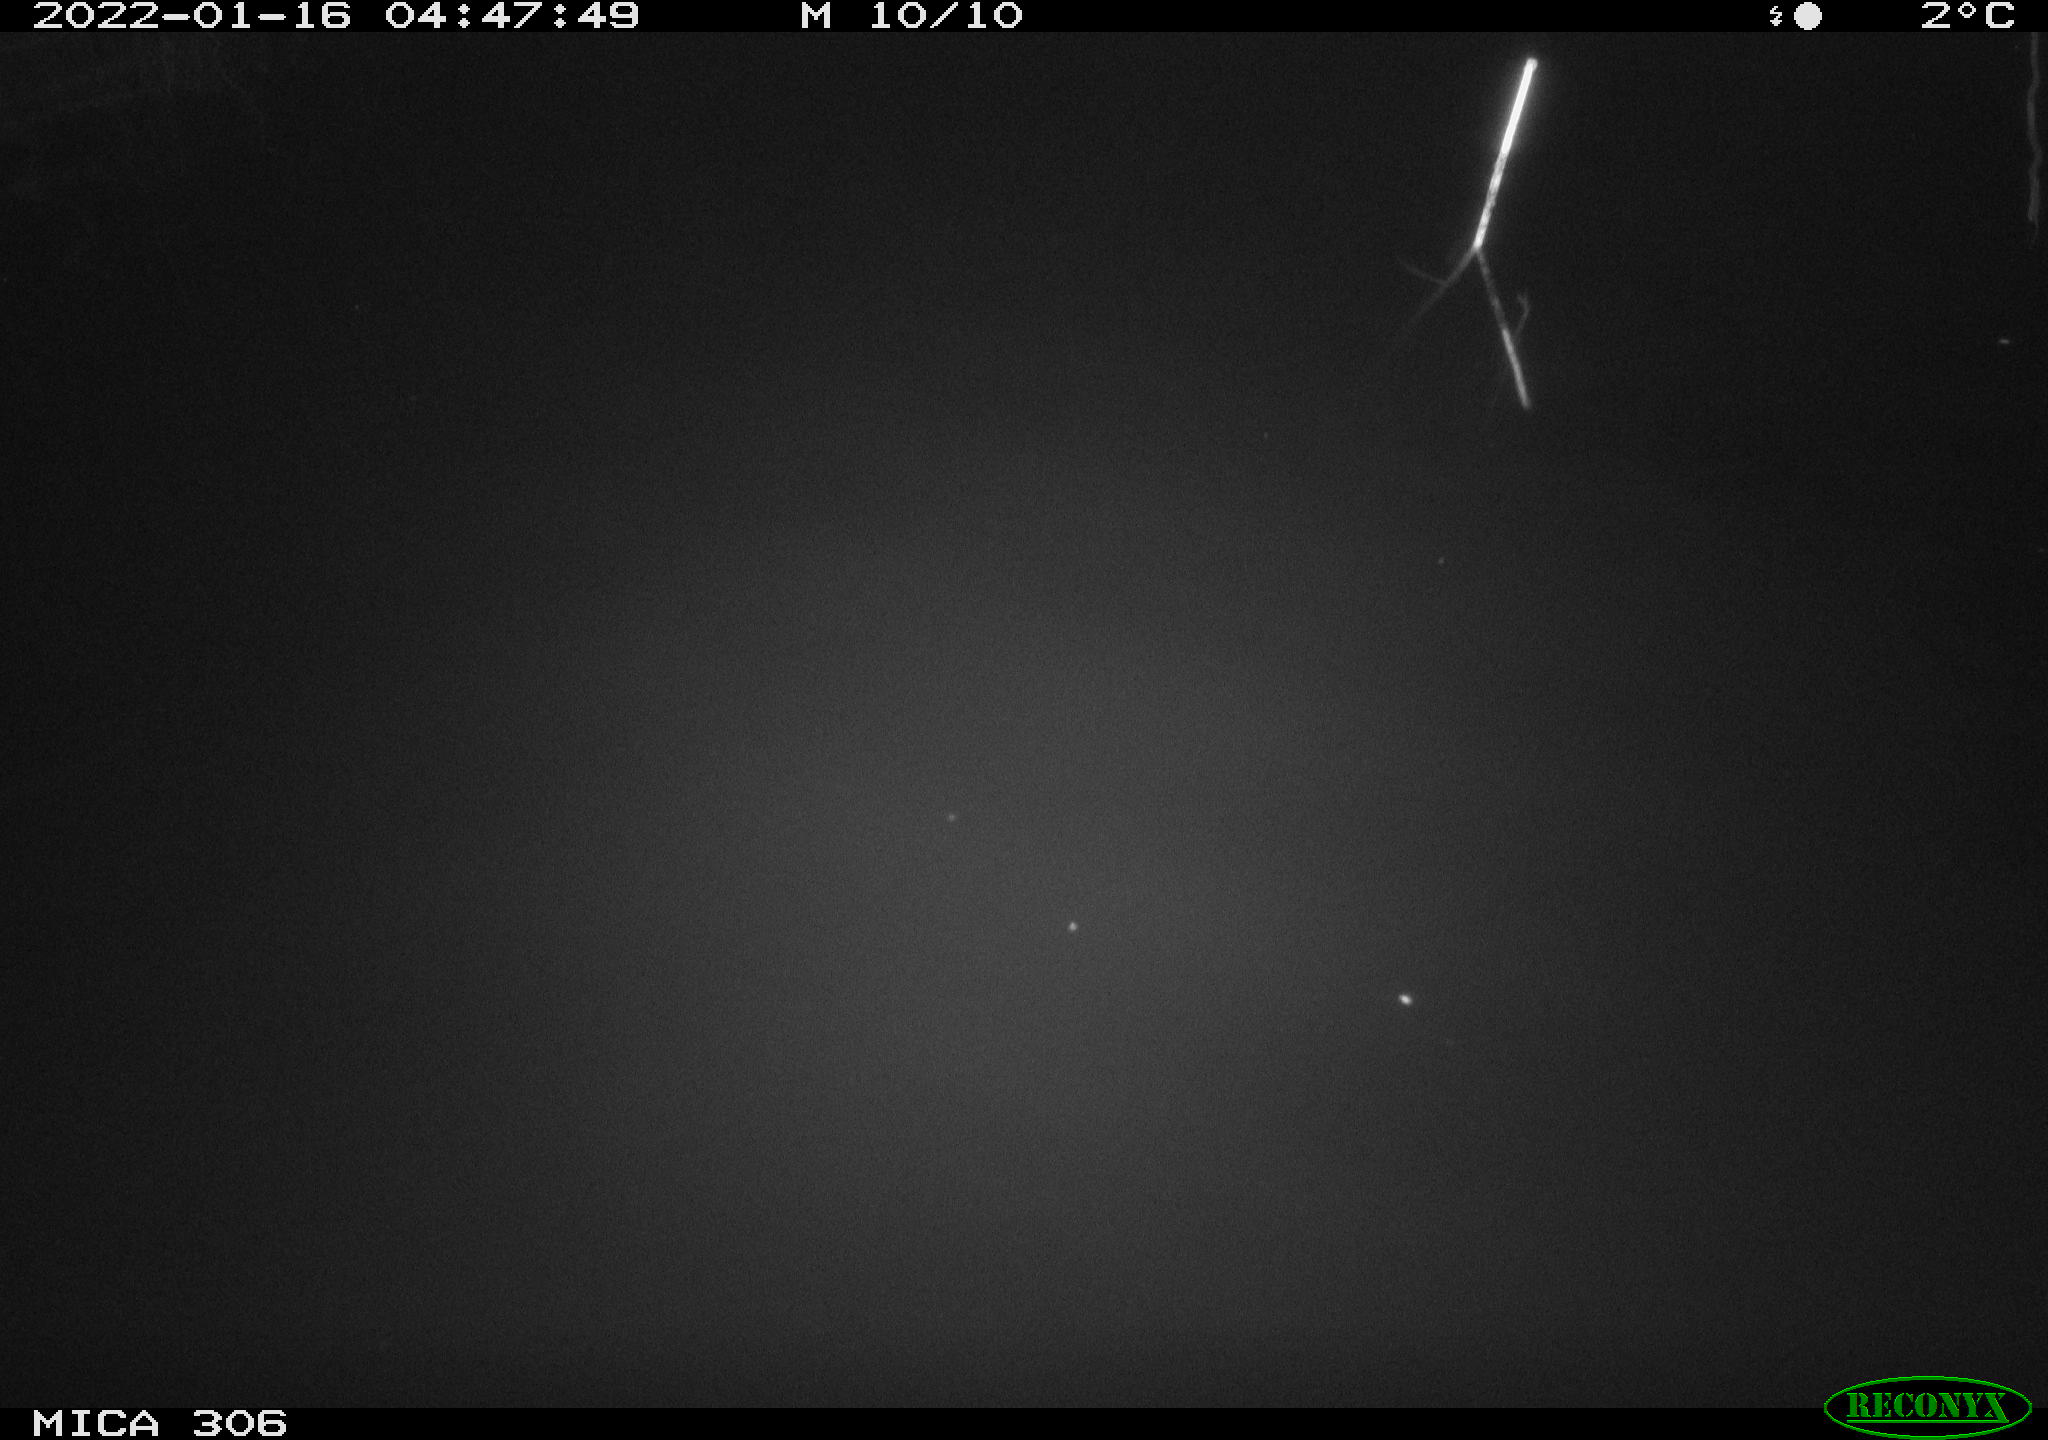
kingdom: Animalia
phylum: Chordata
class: Mammalia
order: Rodentia
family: Cricetidae
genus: Ondatra
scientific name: Ondatra zibethicus
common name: Muskrat
